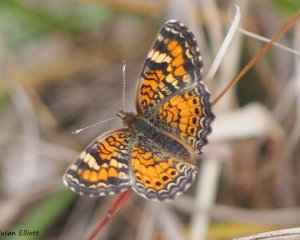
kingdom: Animalia
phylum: Arthropoda
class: Insecta
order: Lepidoptera
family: Nymphalidae
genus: Phyciodes
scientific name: Phyciodes phaon
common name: Phaon Crescent
